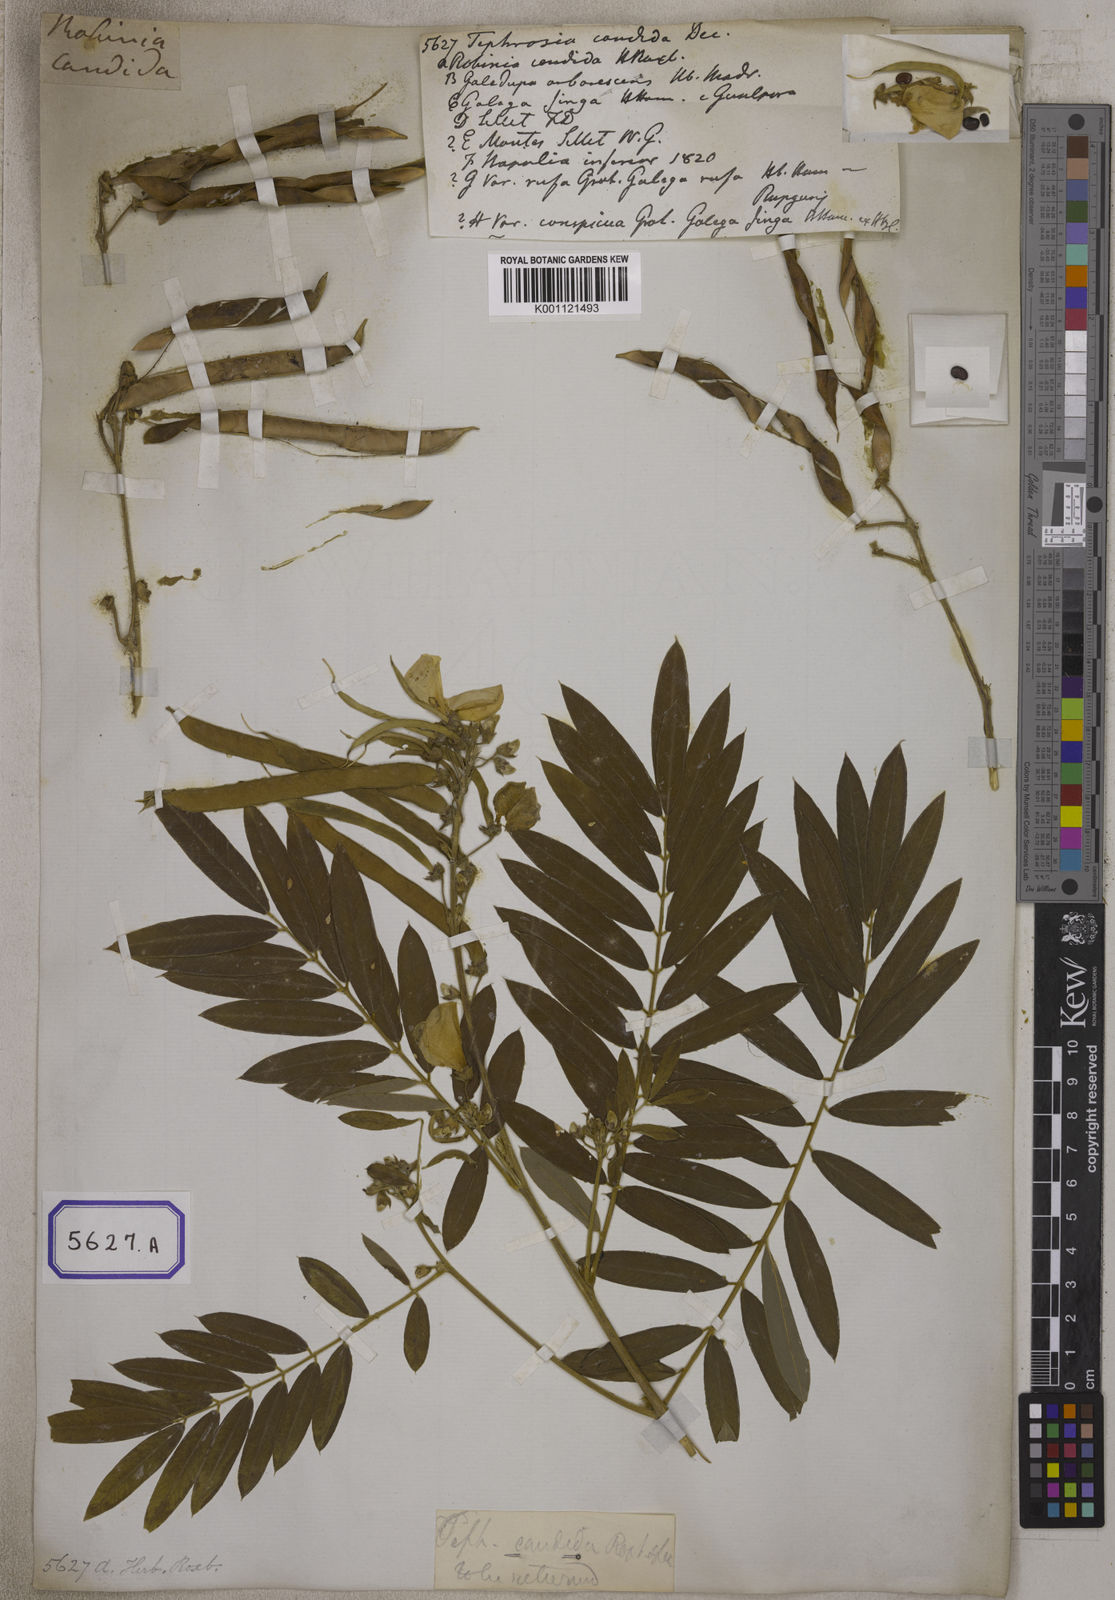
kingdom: Plantae
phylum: Tracheophyta
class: Magnoliopsida
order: Fabales
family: Fabaceae
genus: Tephrosia
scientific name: Tephrosia candida
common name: White tephrosia
